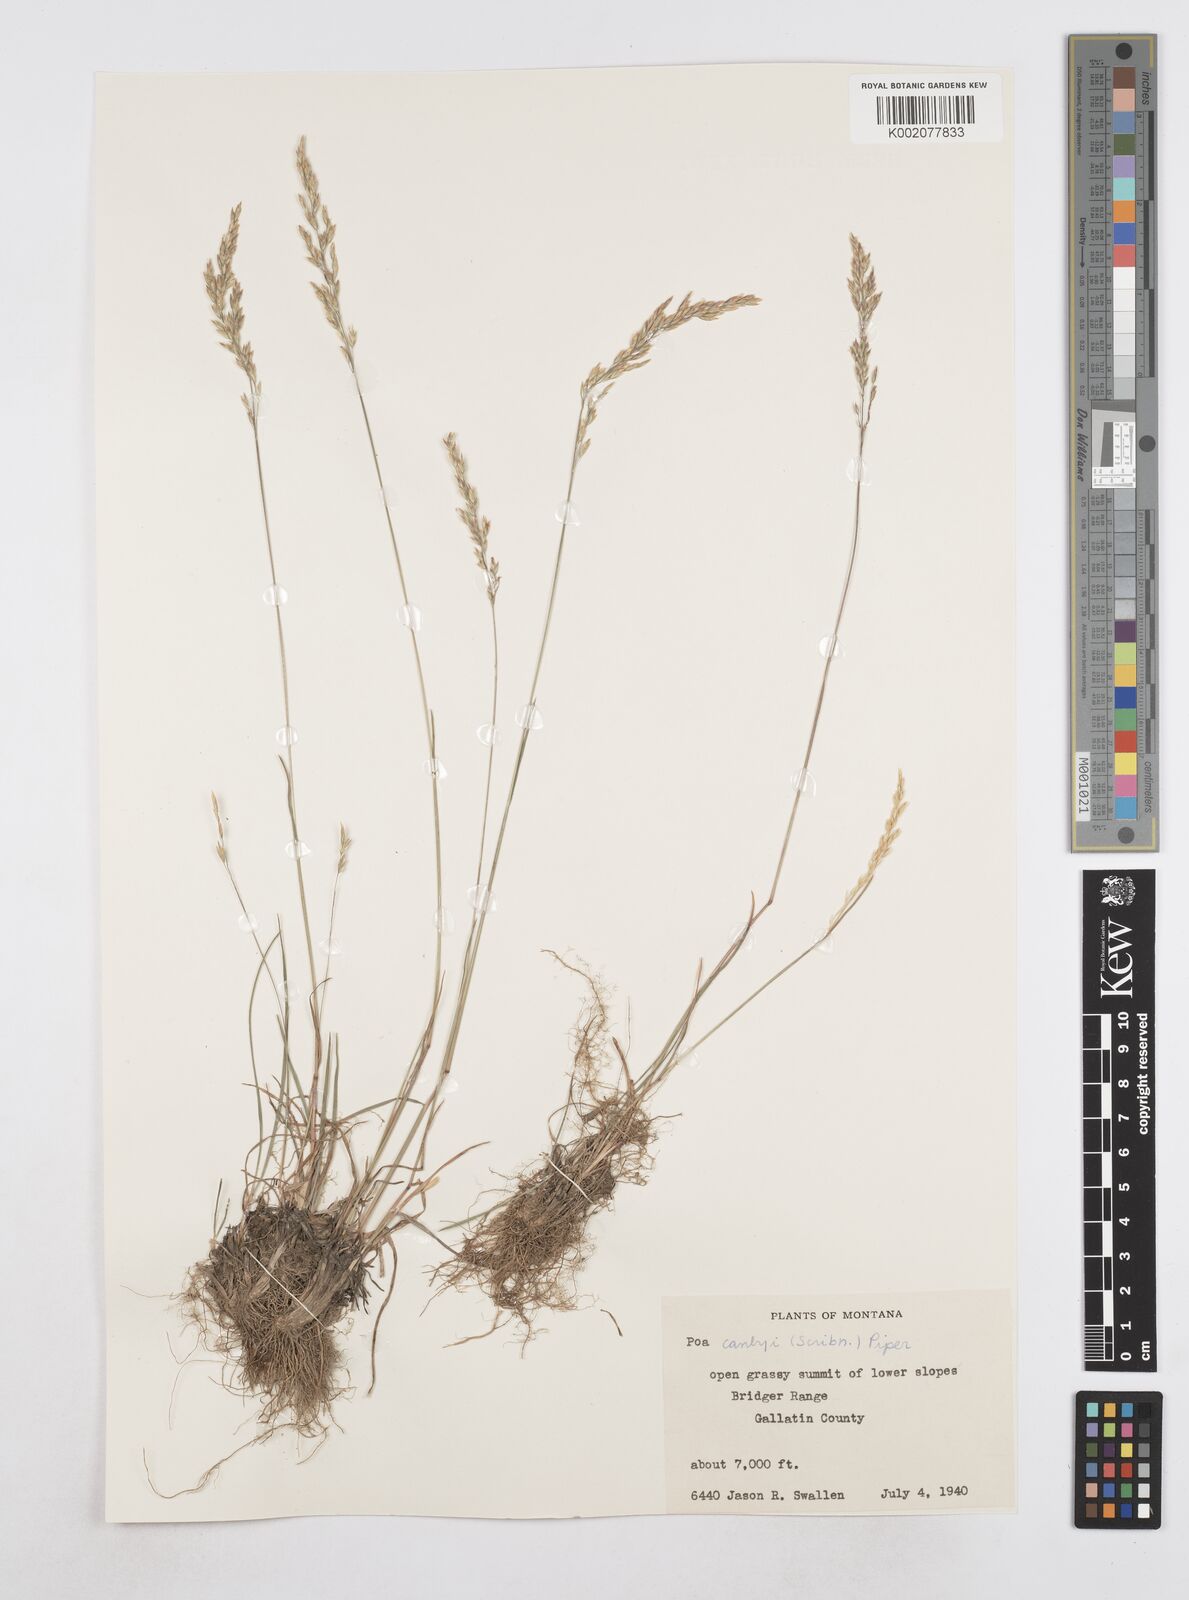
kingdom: Plantae
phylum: Tracheophyta
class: Liliopsida
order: Poales
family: Poaceae
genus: Poa
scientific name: Poa secunda
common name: Sandberg bluegrass
